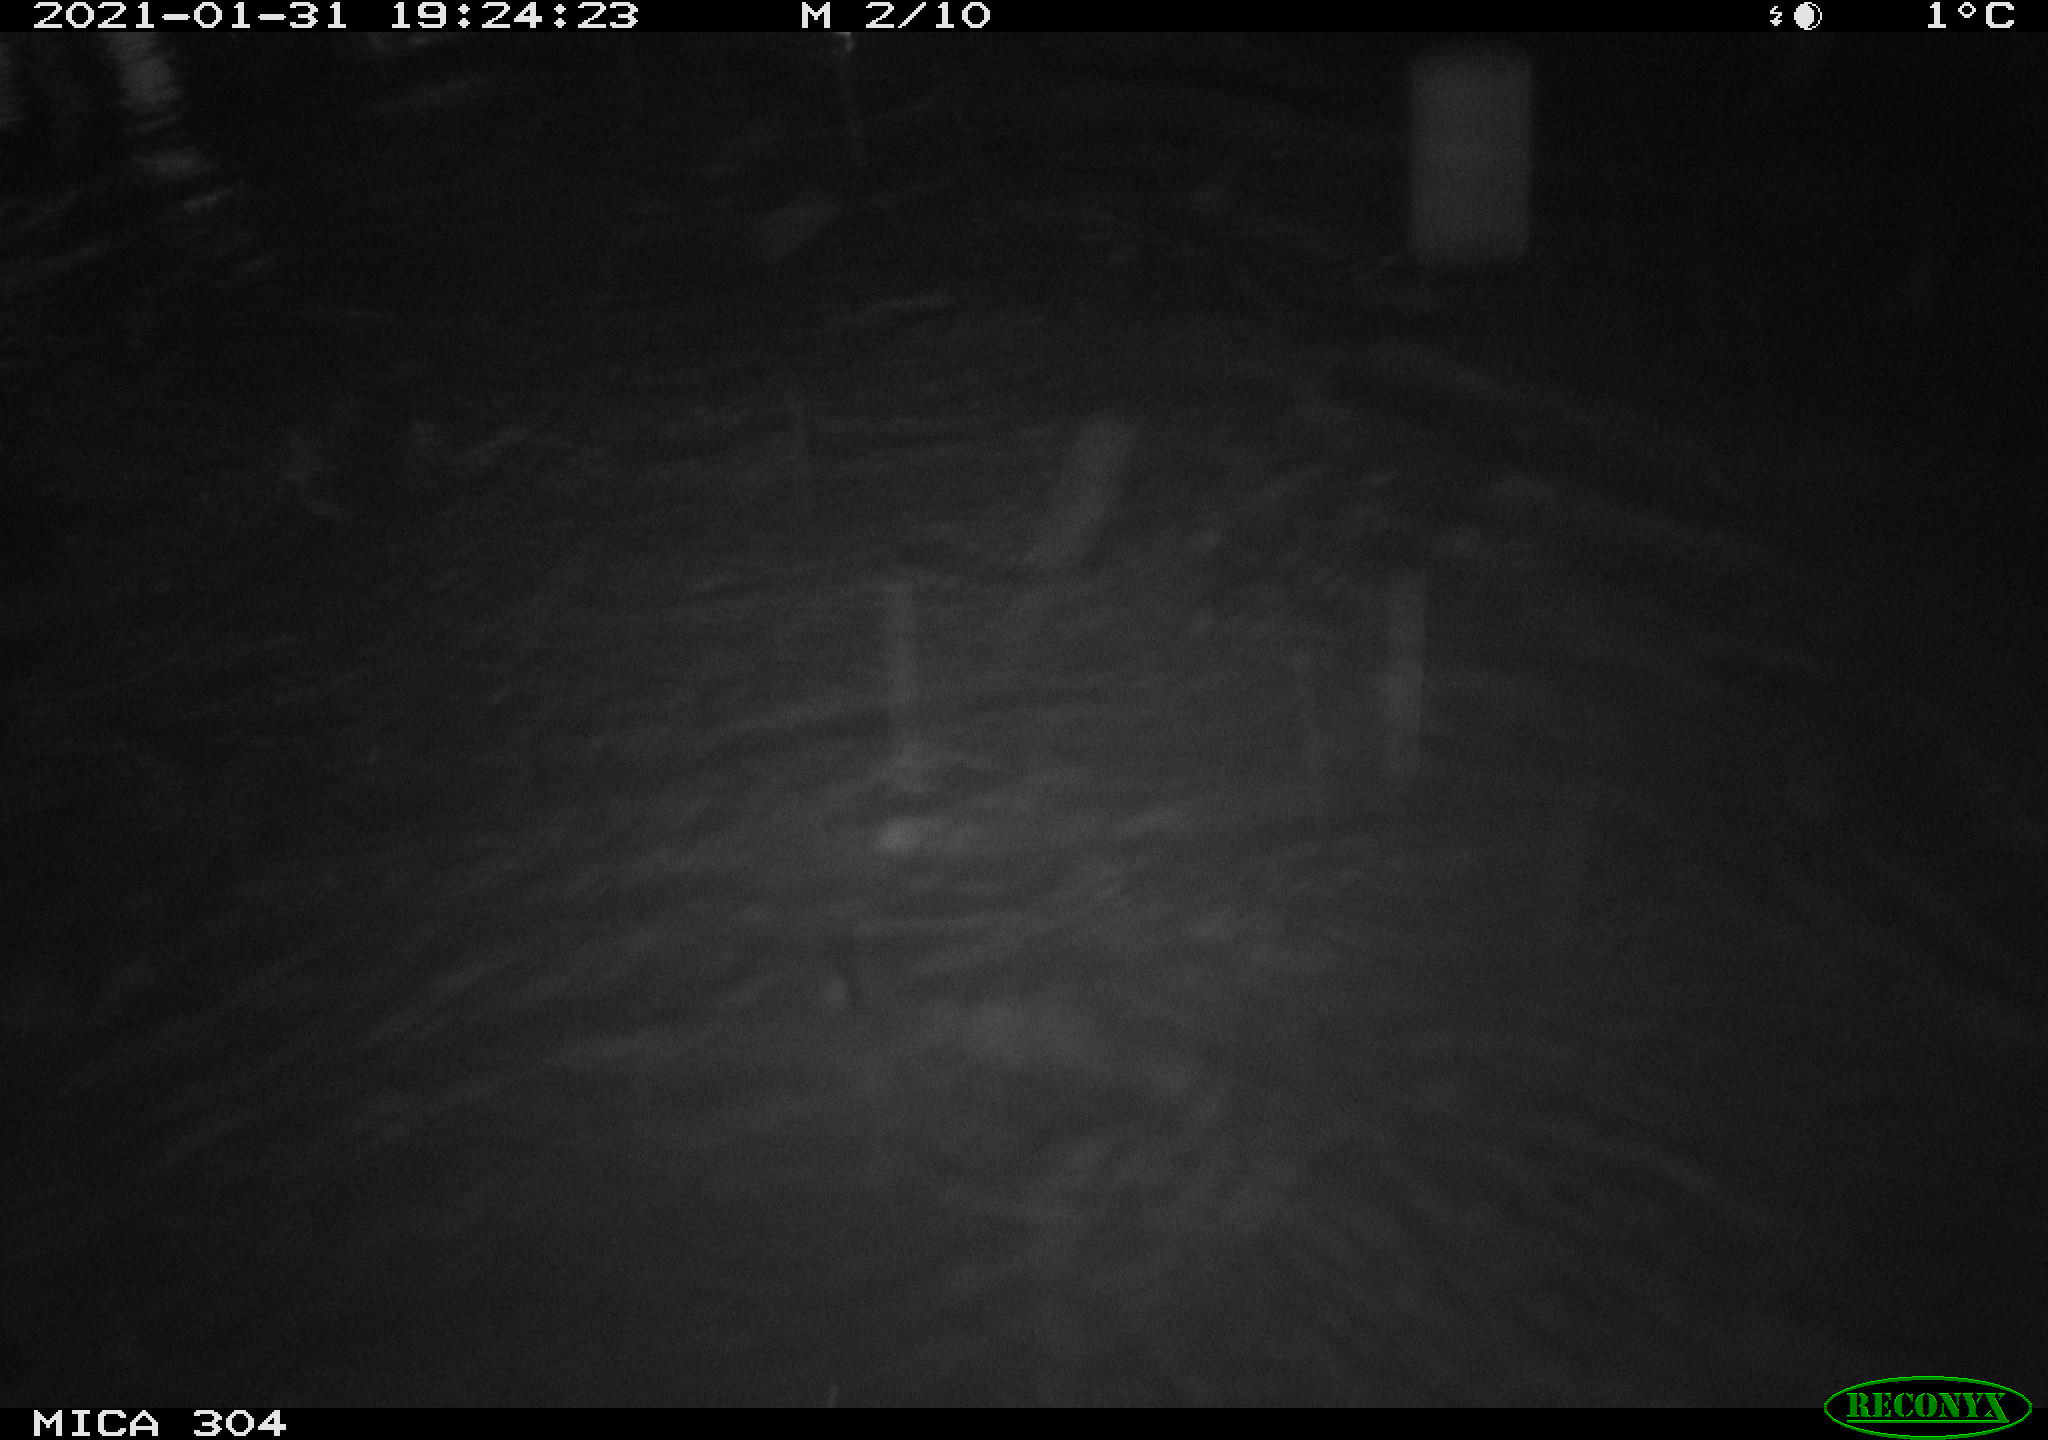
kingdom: Animalia
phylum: Chordata
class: Mammalia
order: Rodentia
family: Cricetidae
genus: Ondatra
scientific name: Ondatra zibethicus
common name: Muskrat
